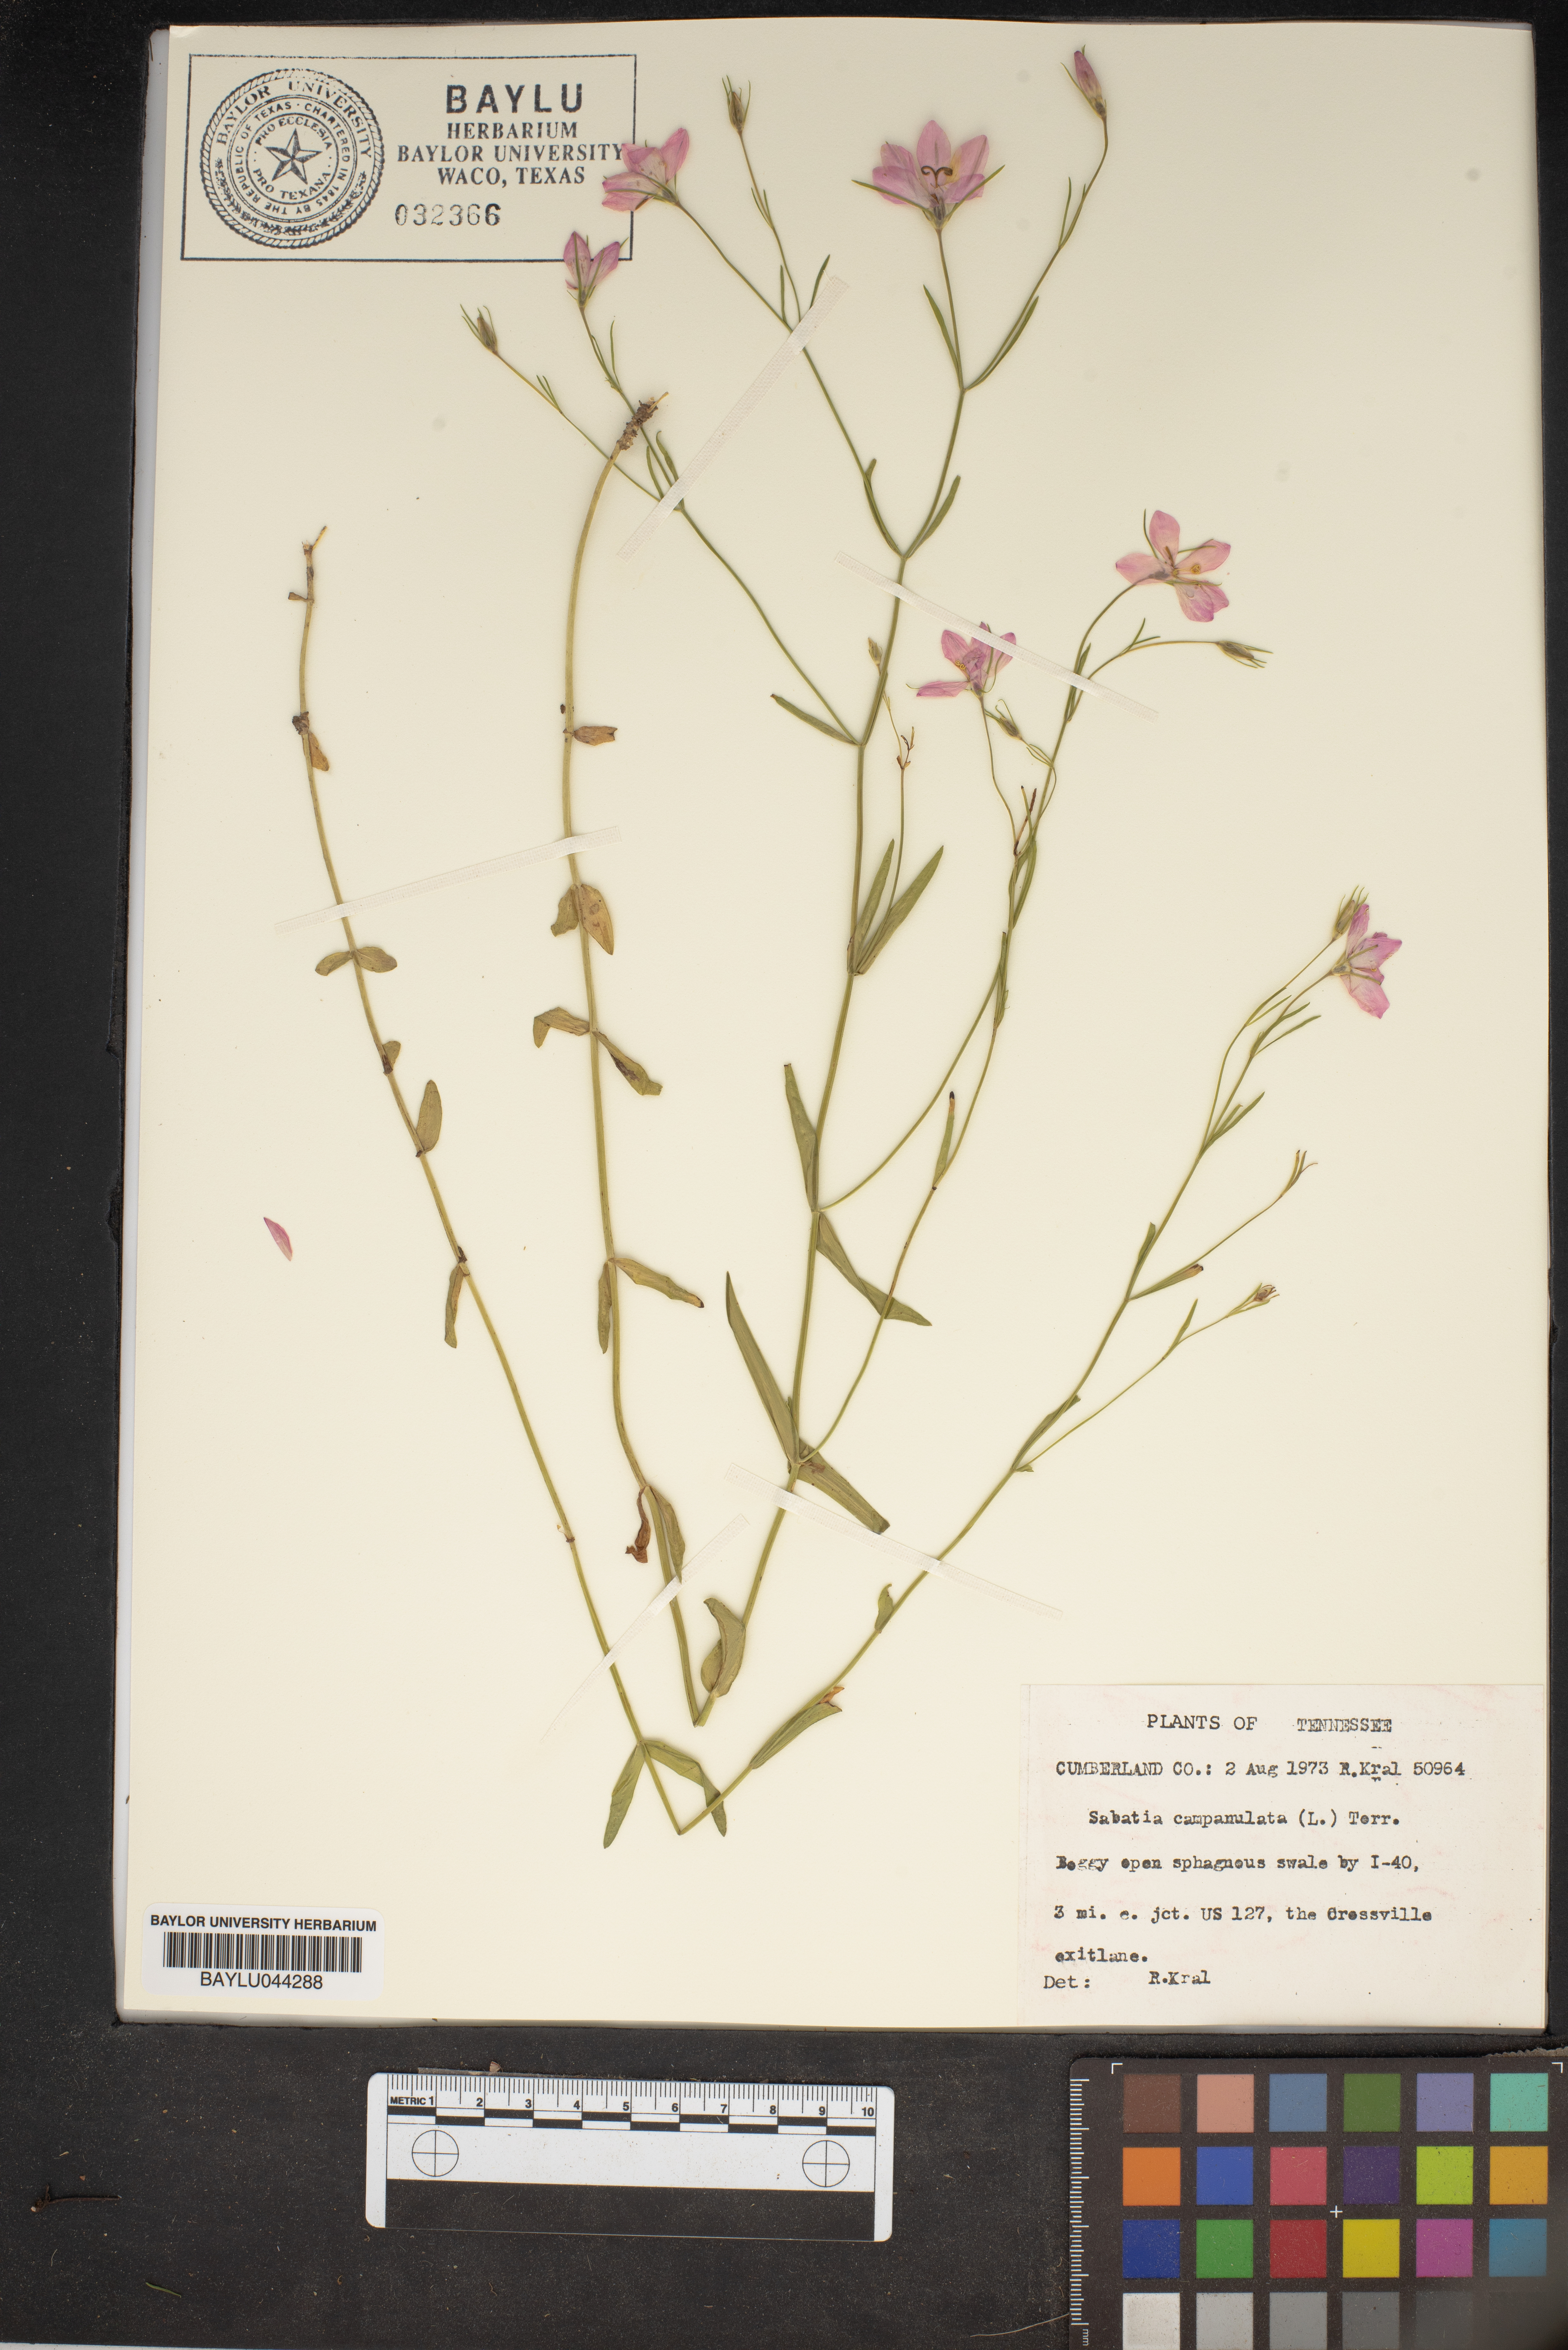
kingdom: Plantae
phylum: Tracheophyta
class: Magnoliopsida
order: Gentianales
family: Gentianaceae
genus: Sabatia
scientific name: Sabatia campanulata
